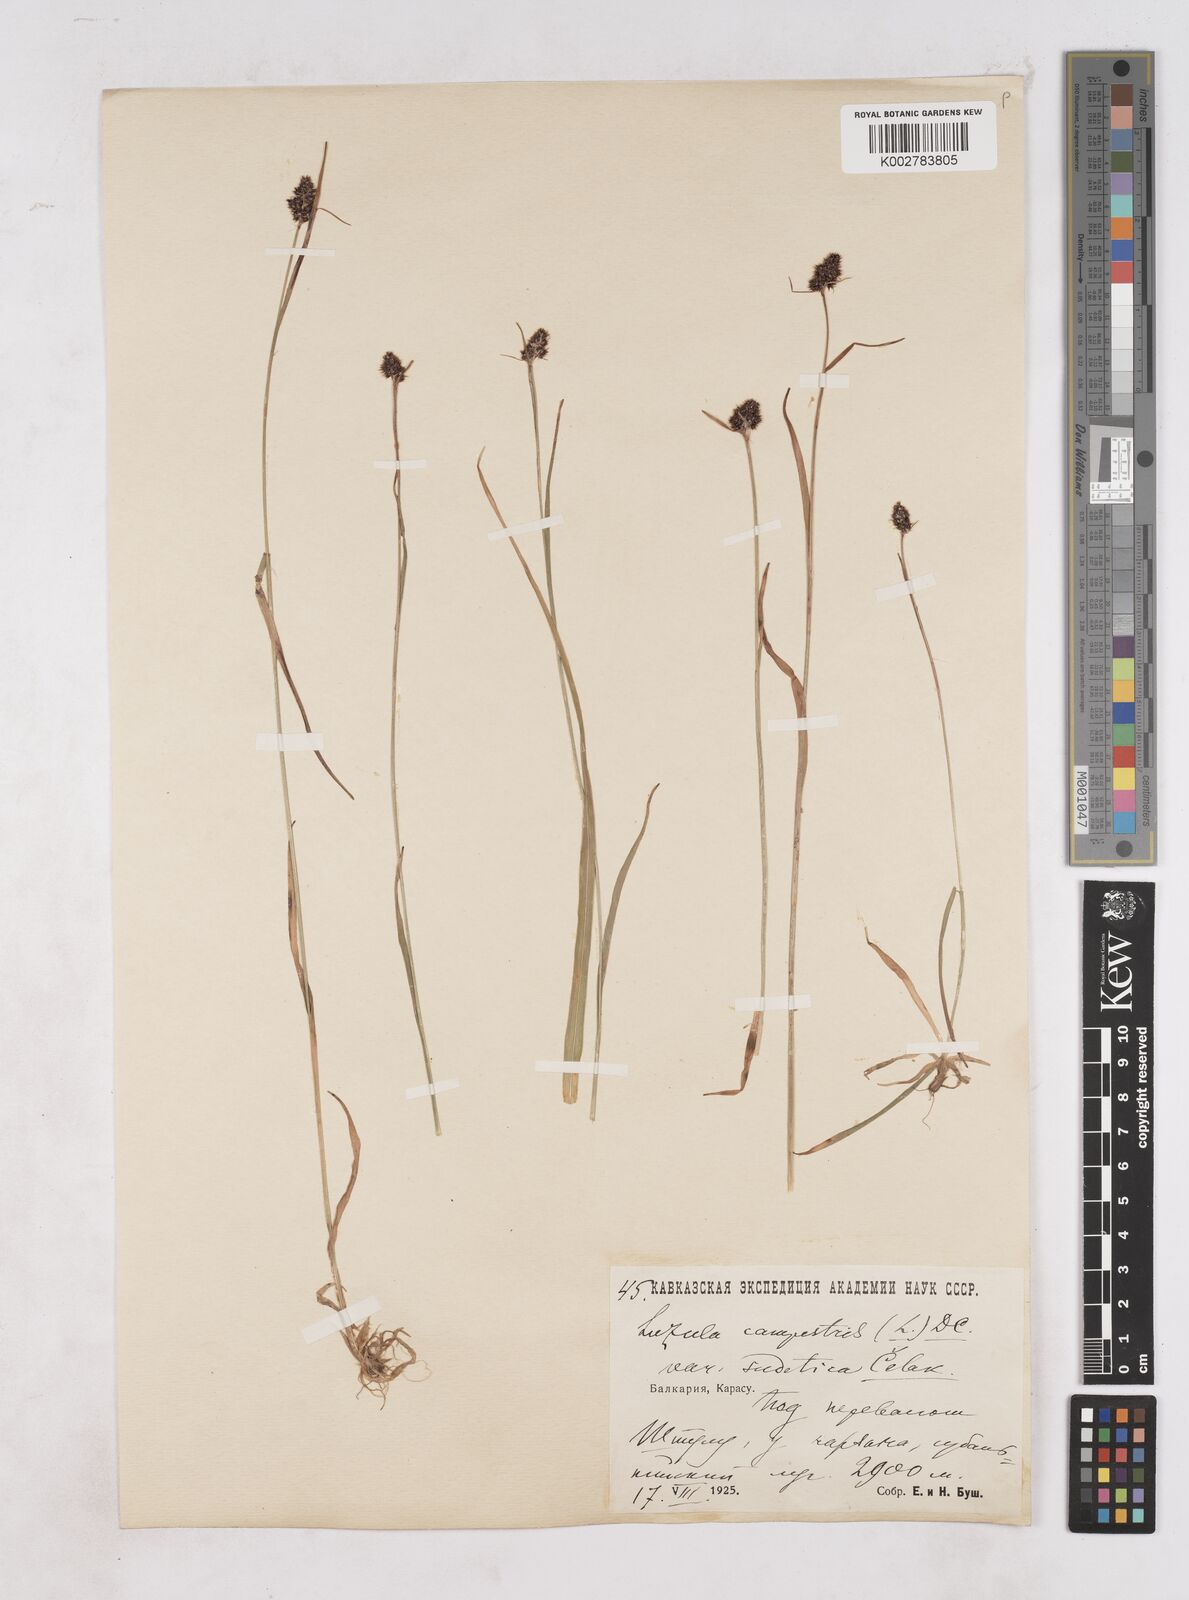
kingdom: Plantae
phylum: Tracheophyta
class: Liliopsida
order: Poales
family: Juncaceae
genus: Luzula
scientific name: Luzula campestris
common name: Field wood-rush
